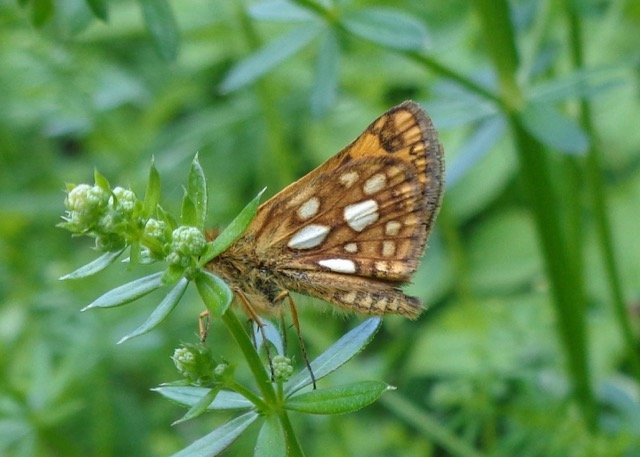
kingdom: Animalia
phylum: Arthropoda
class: Insecta
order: Lepidoptera
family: Hesperiidae
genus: Carterocephalus
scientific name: Carterocephalus palaemon
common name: Chequered Skipper
